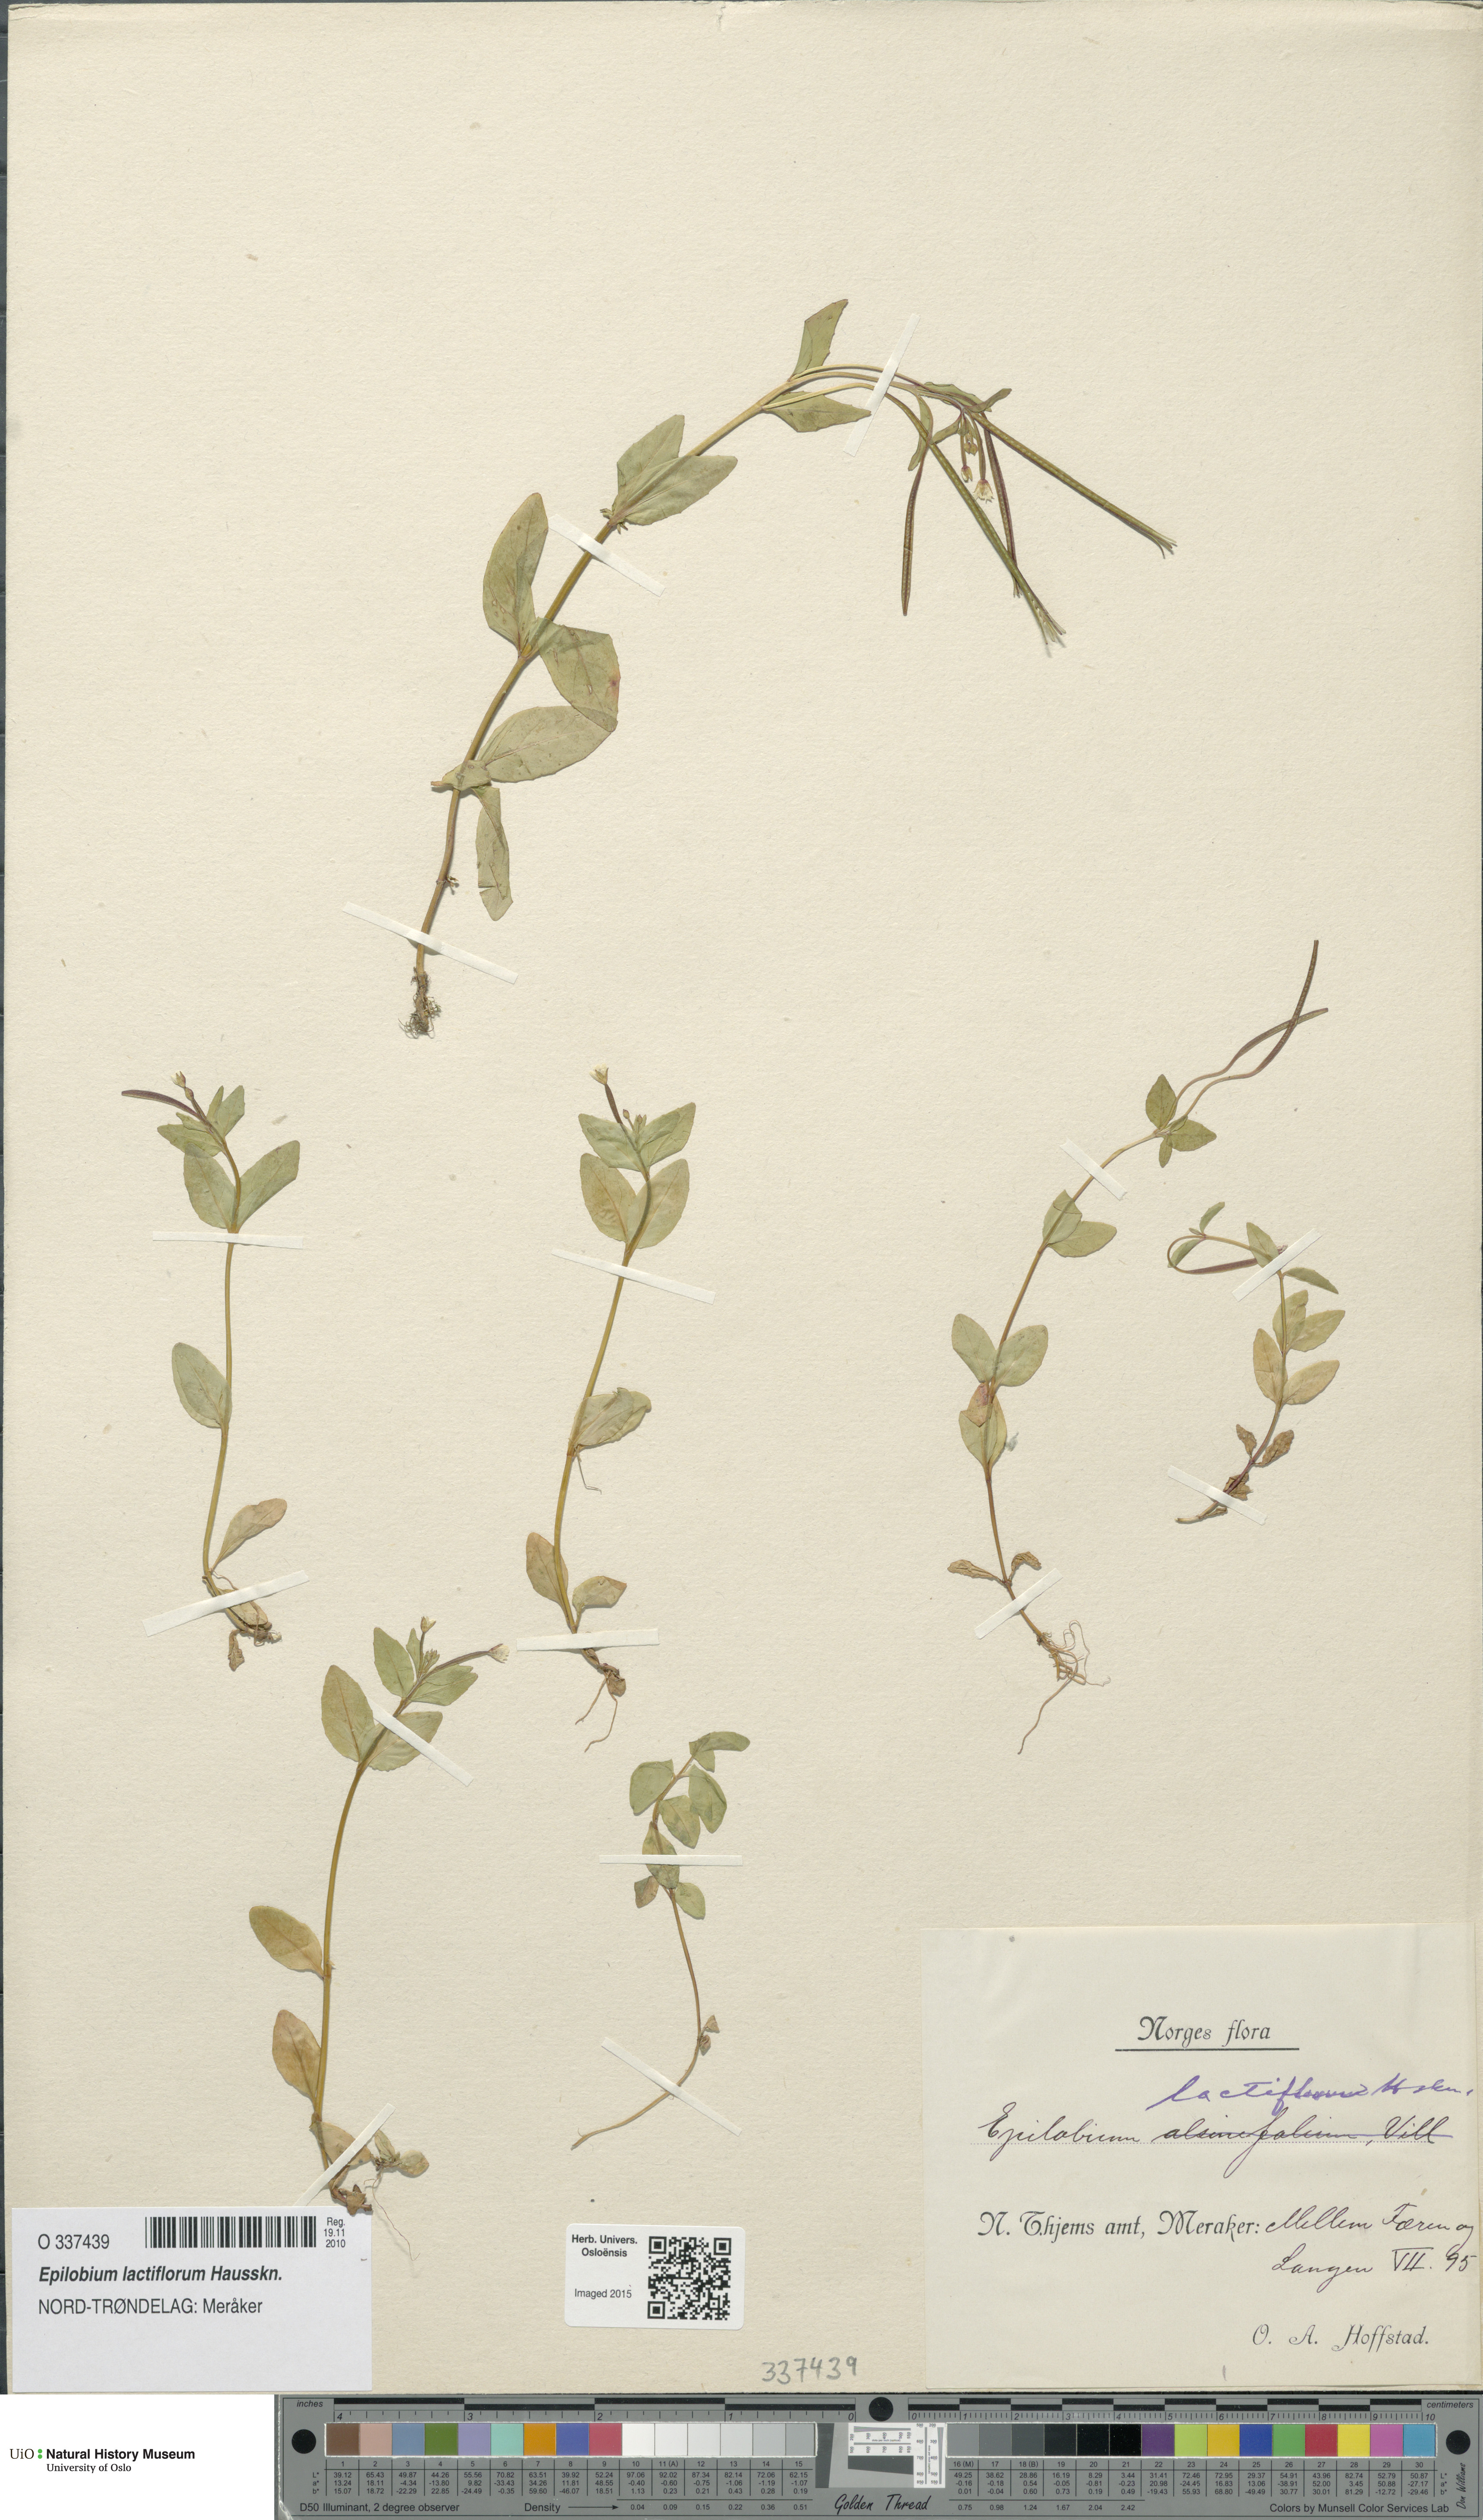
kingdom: Plantae
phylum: Tracheophyta
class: Magnoliopsida
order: Myrtales
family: Onagraceae
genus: Epilobium
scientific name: Epilobium lactiflorum
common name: Milkflower willowherb
